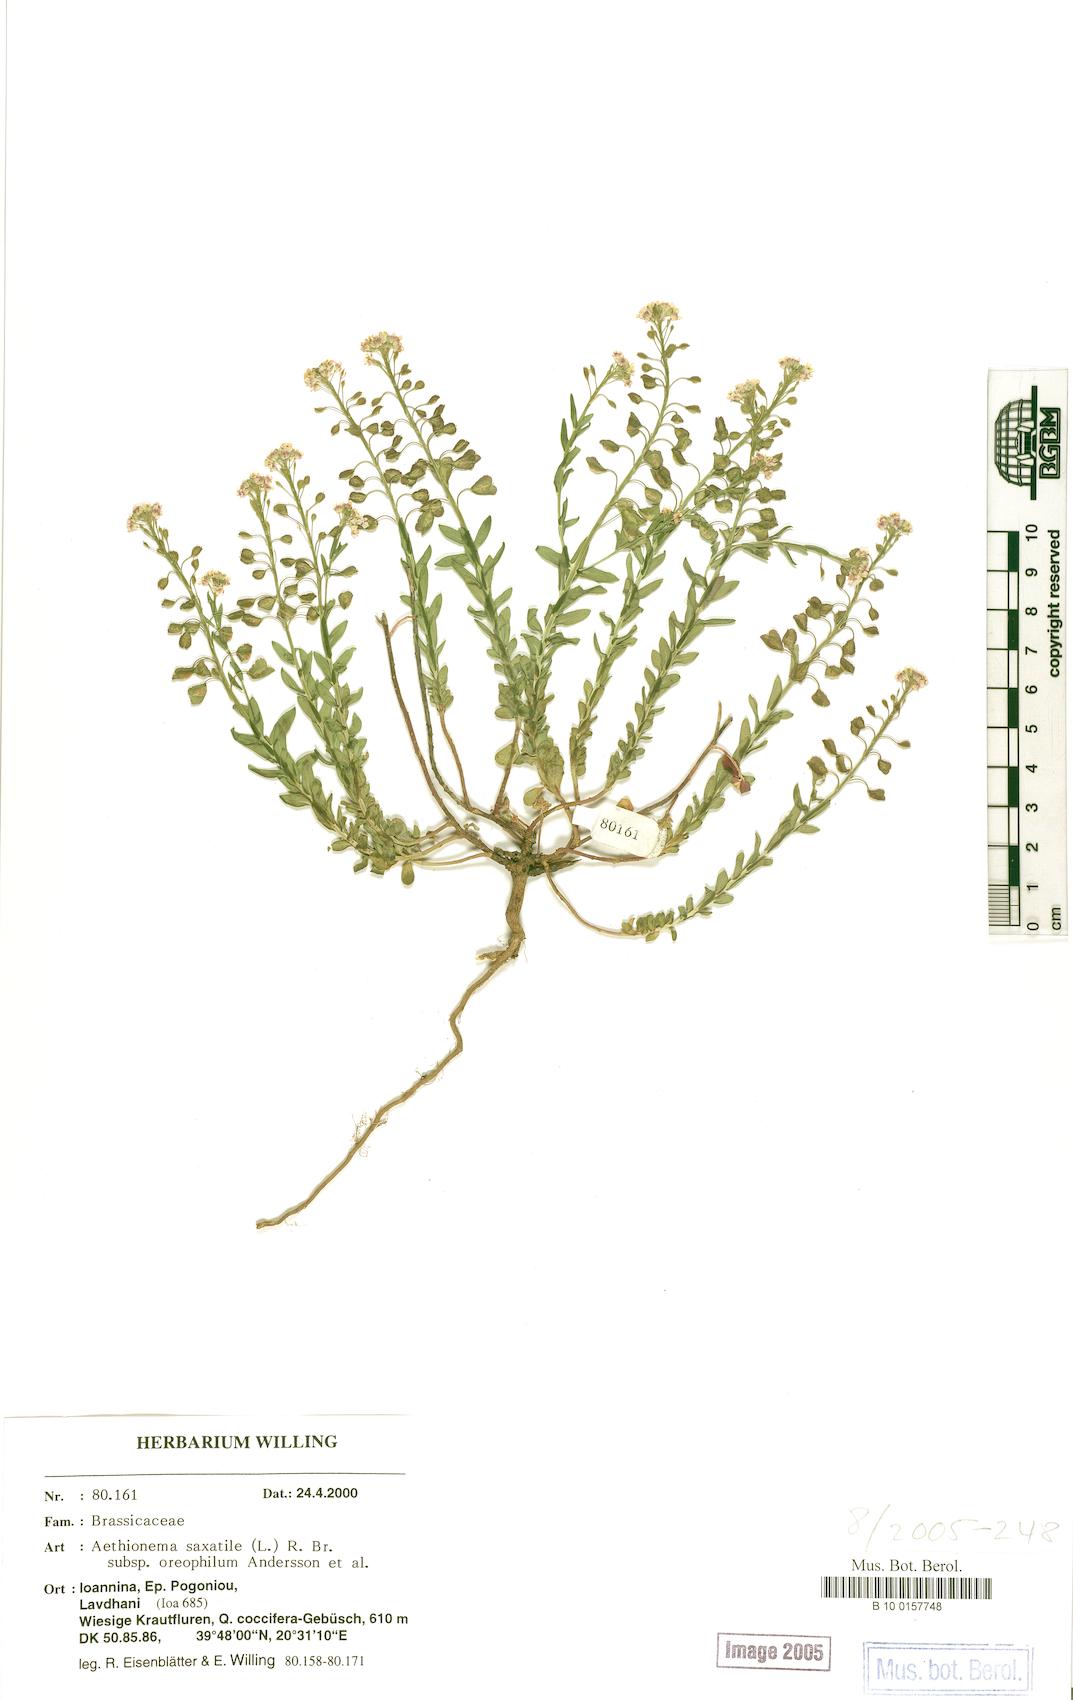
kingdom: Plantae
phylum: Tracheophyta
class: Magnoliopsida
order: Brassicales
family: Brassicaceae
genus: Aethionema
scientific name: Aethionema saxatile
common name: Burnt candytuft
